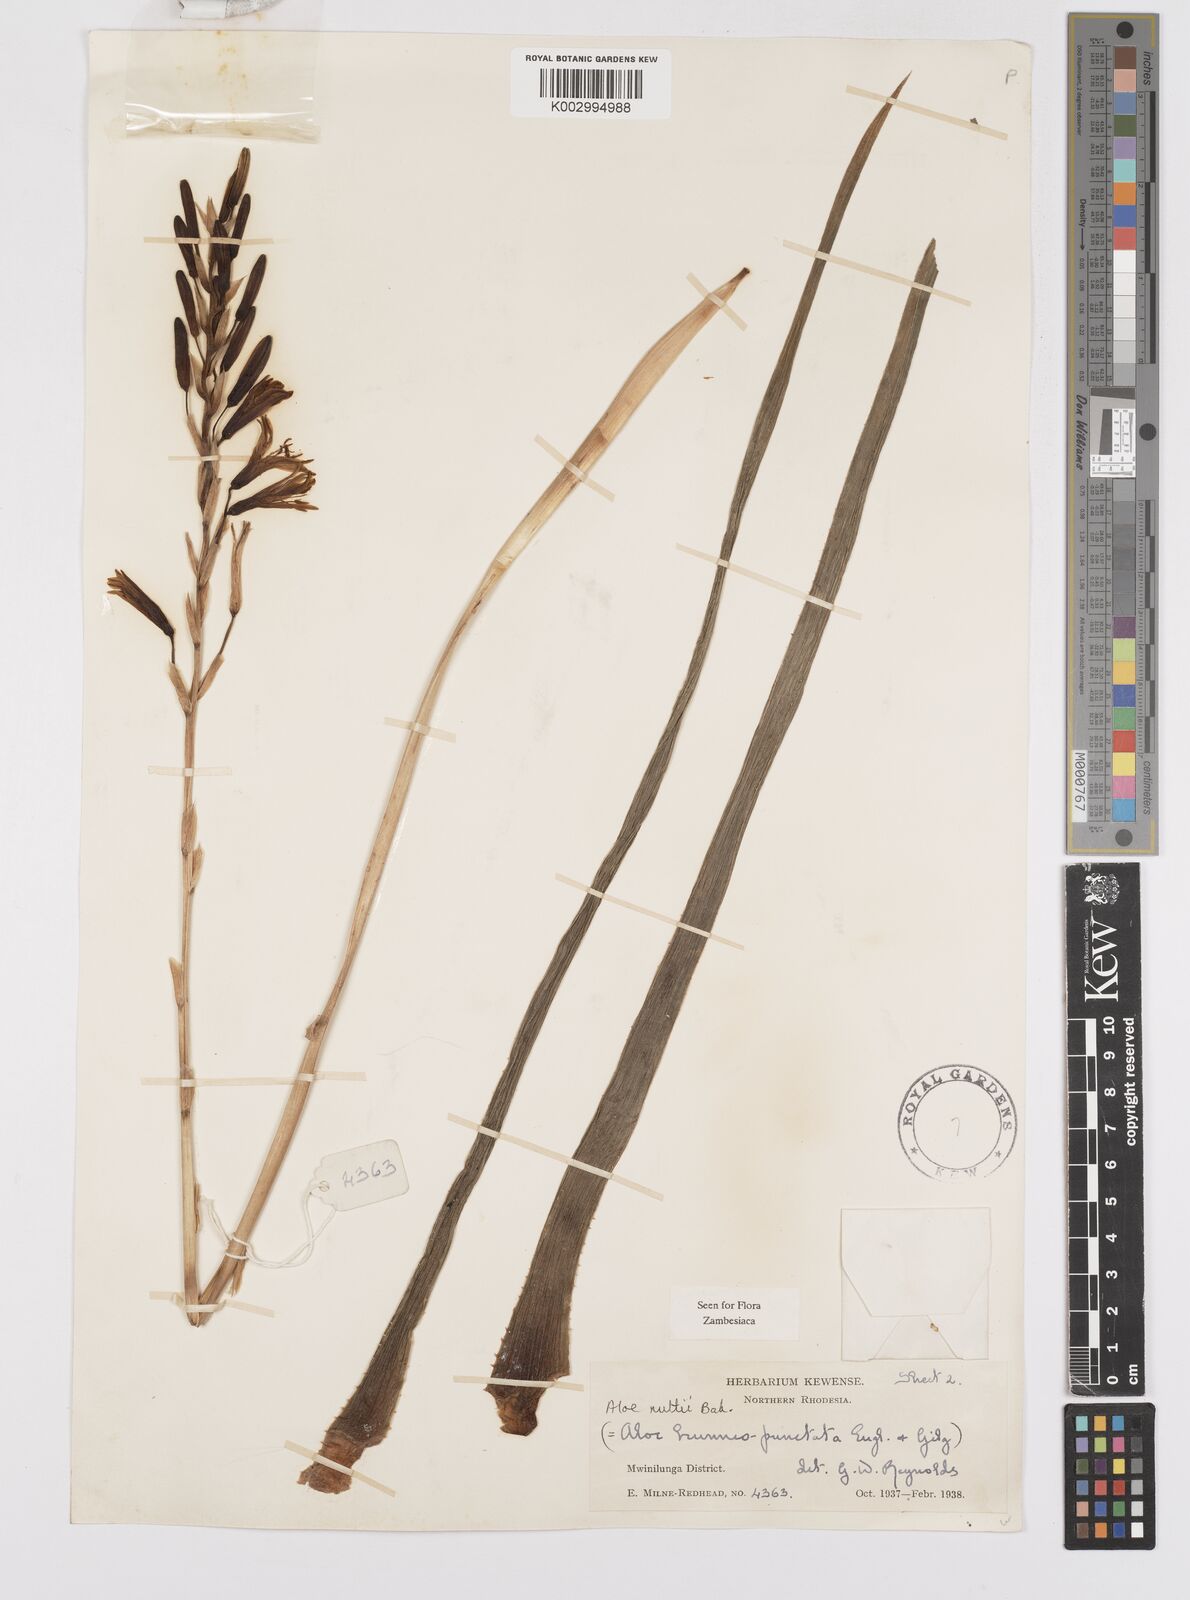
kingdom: Plantae
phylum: Tracheophyta
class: Liliopsida
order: Asparagales
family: Asphodelaceae
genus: Aloe
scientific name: Aloe nuttii
